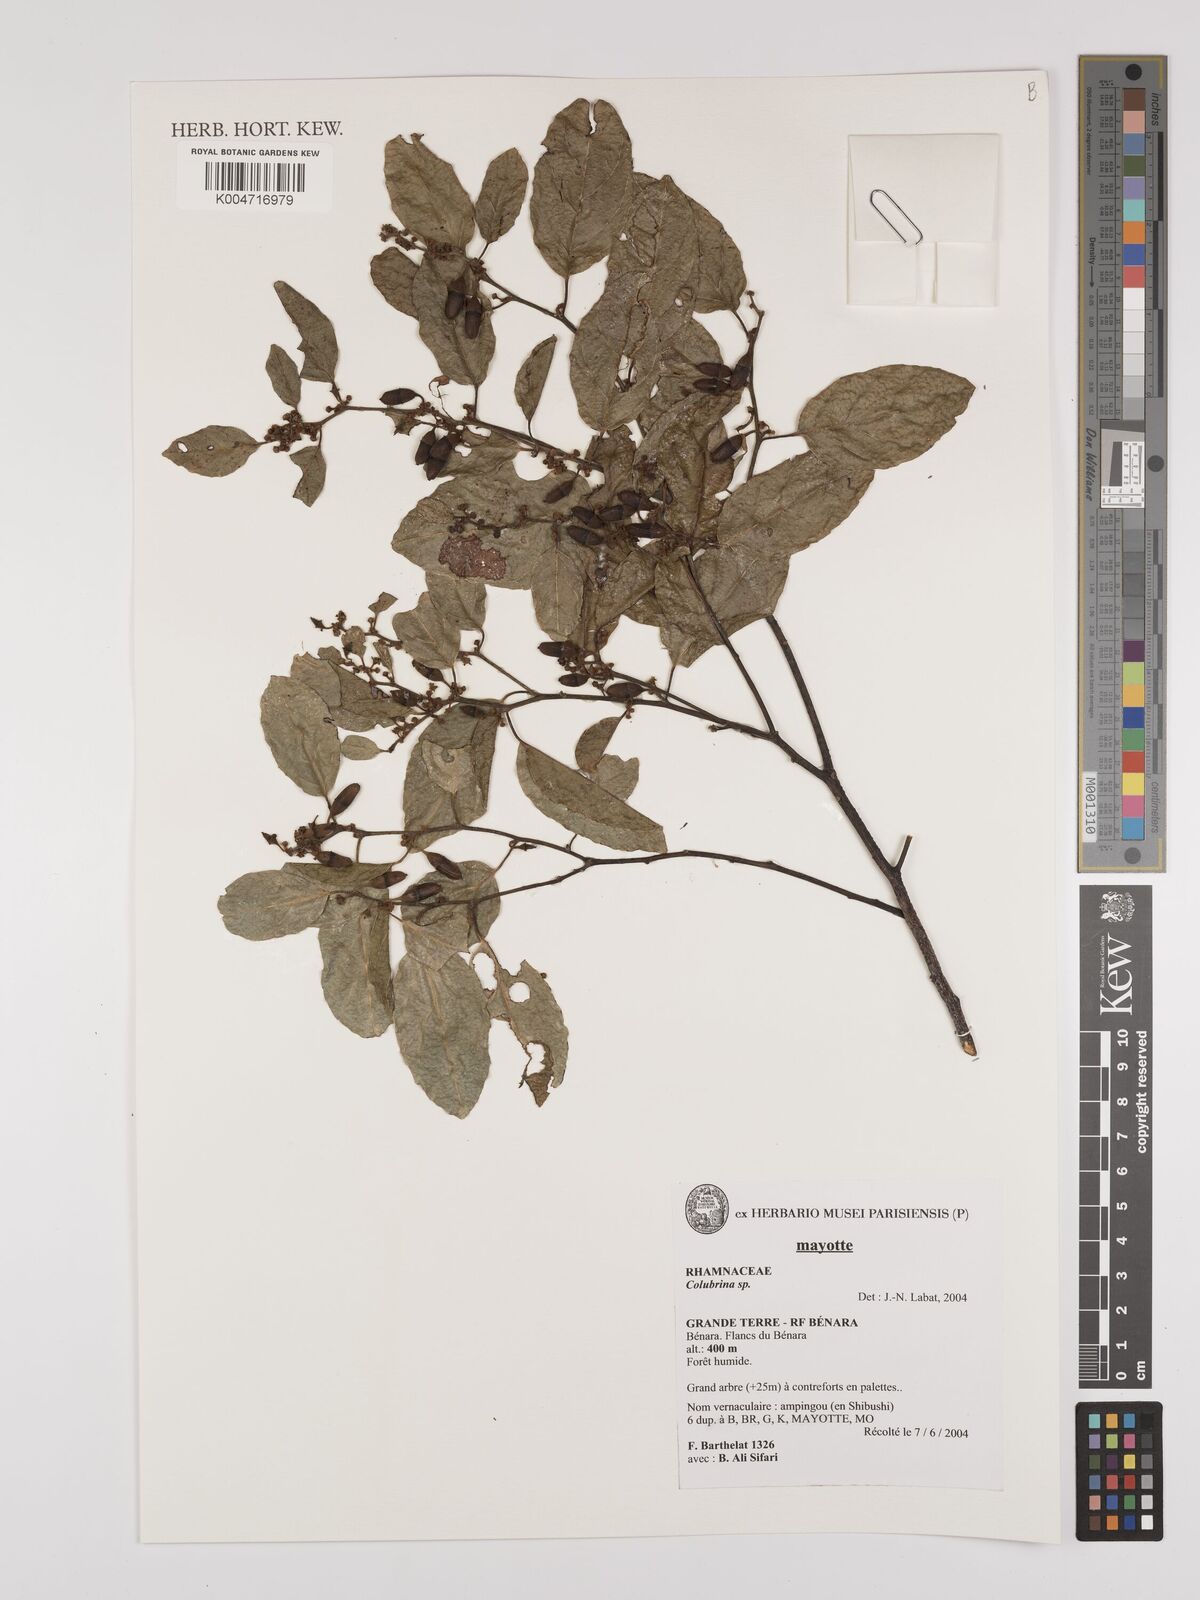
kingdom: Plantae
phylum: Tracheophyta
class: Magnoliopsida
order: Rosales
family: Rhamnaceae
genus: Colubrina
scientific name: Colubrina
